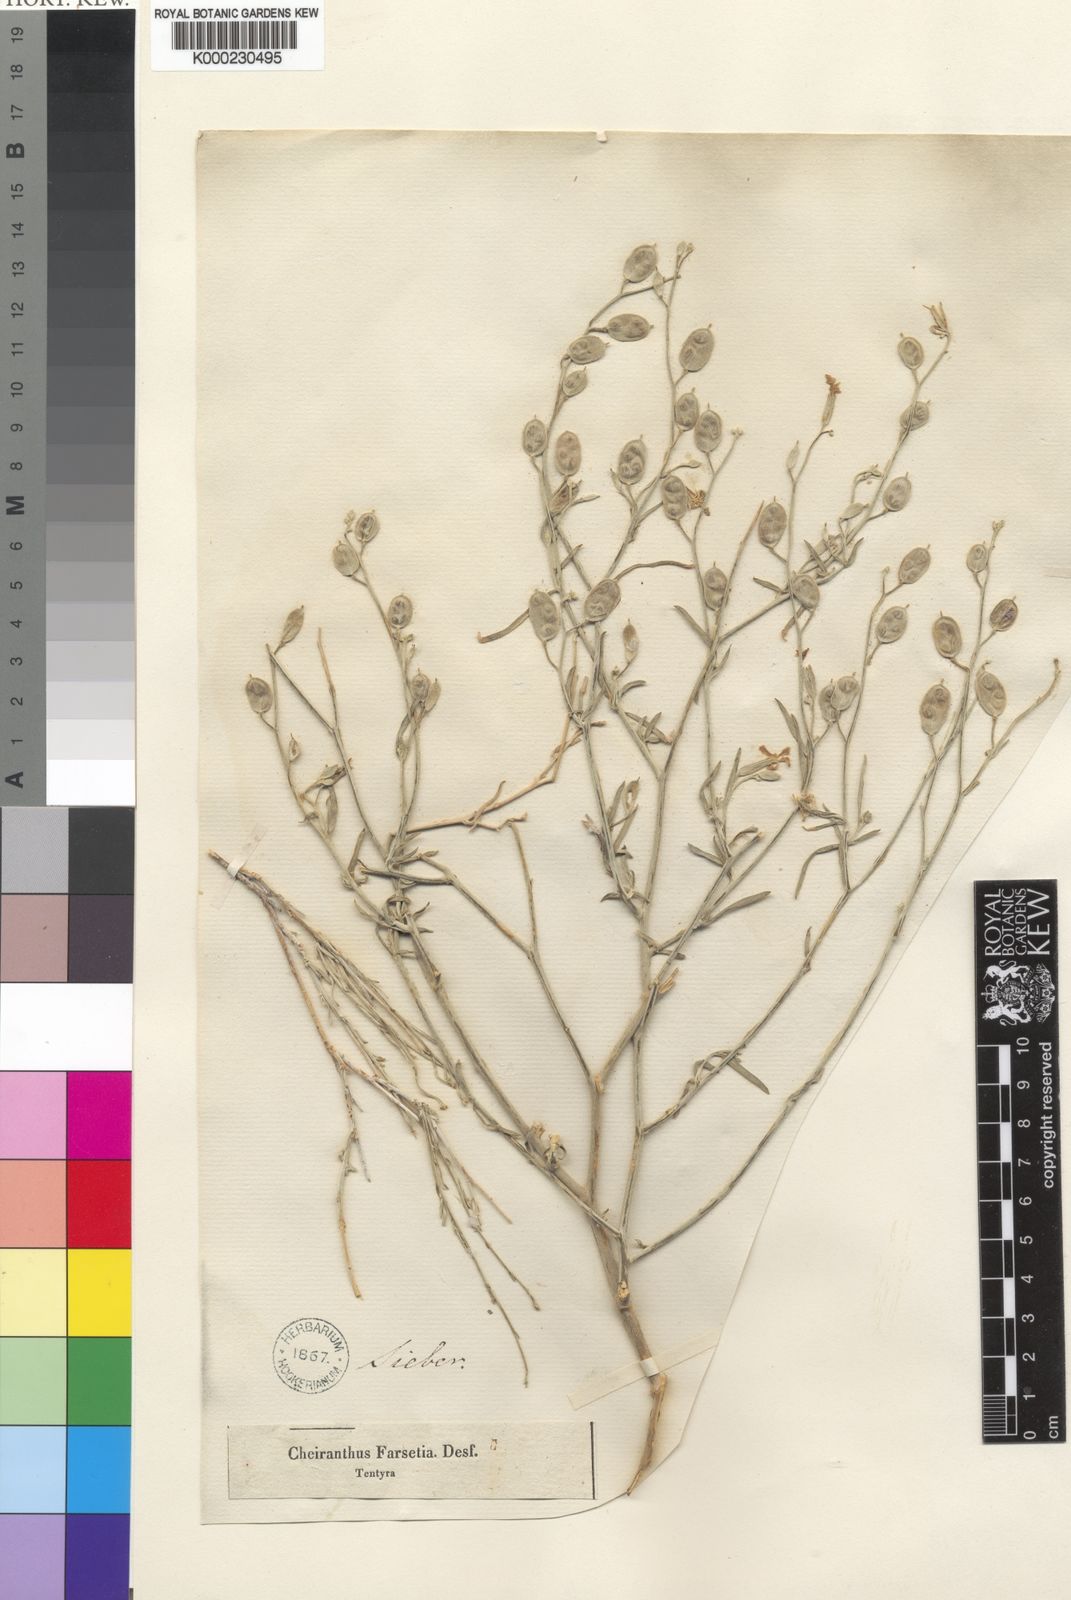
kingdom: Plantae
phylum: Tracheophyta
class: Magnoliopsida
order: Brassicales
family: Brassicaceae
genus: Farsetia
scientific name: Farsetia aegyptia
